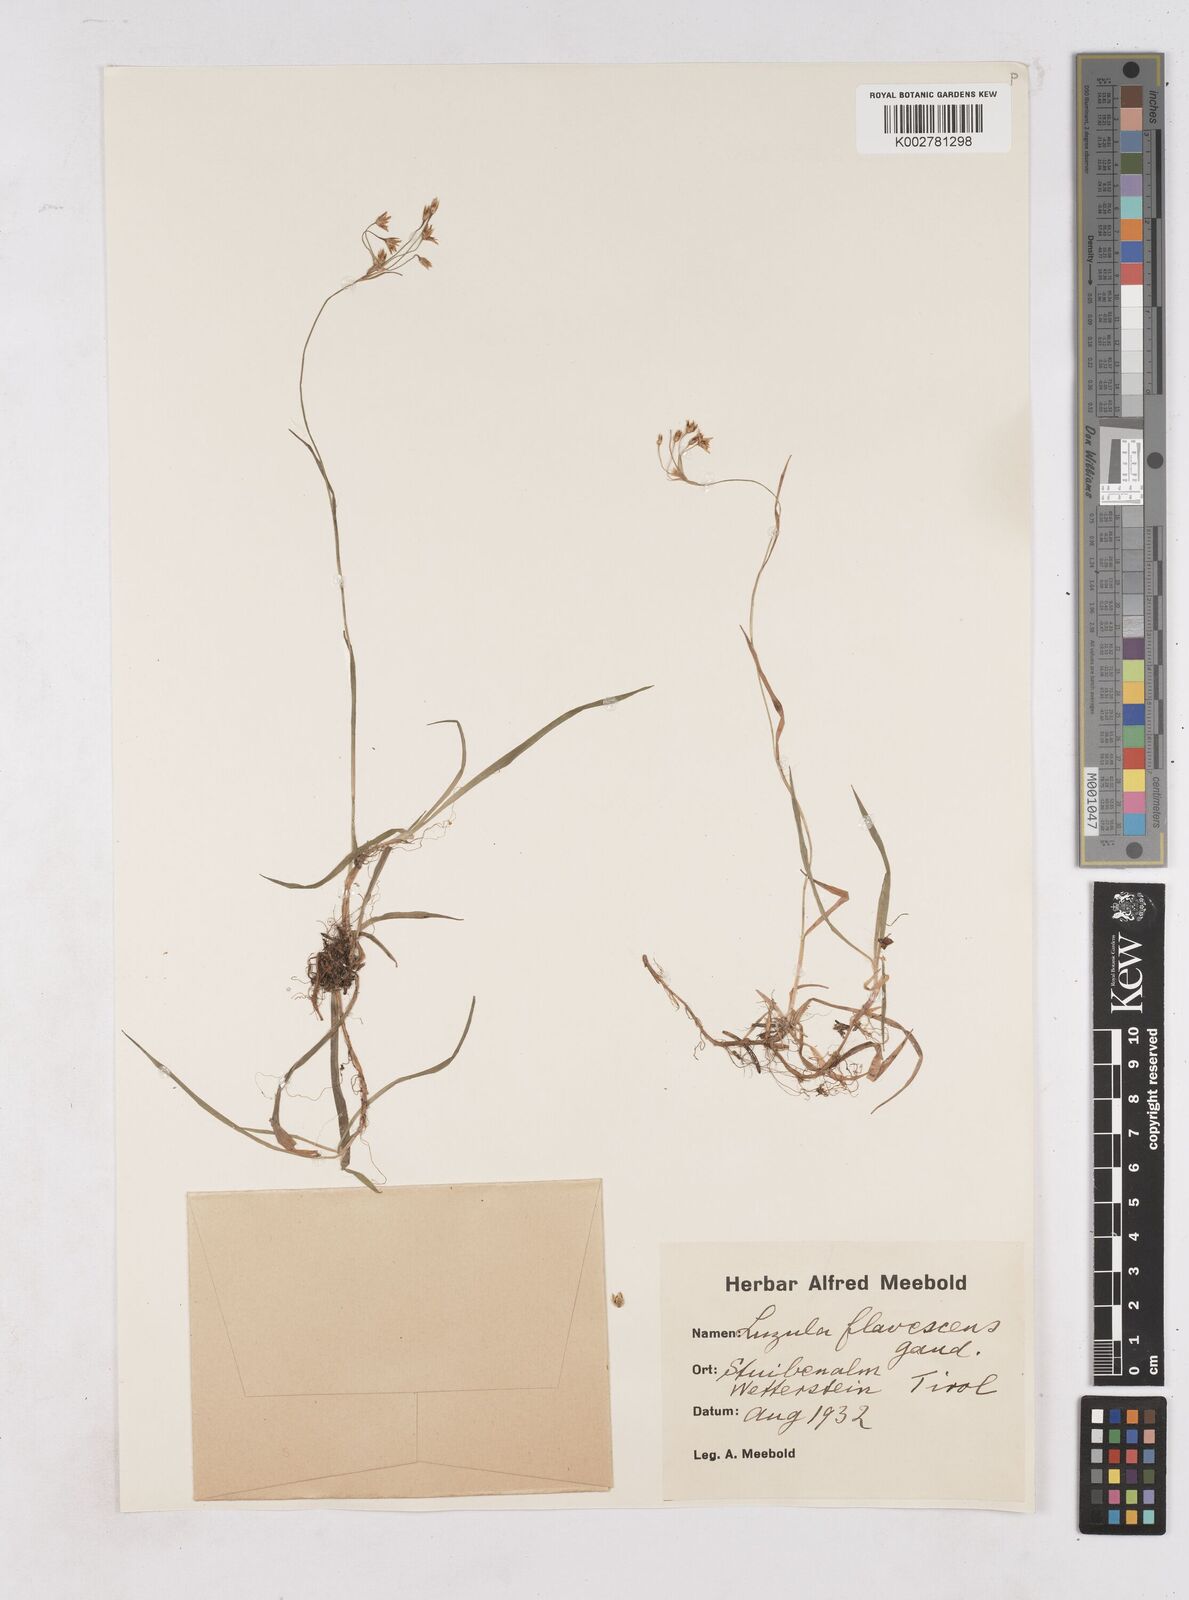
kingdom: Plantae
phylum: Tracheophyta
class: Liliopsida
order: Poales
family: Juncaceae
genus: Luzula
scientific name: Luzula luzulina
